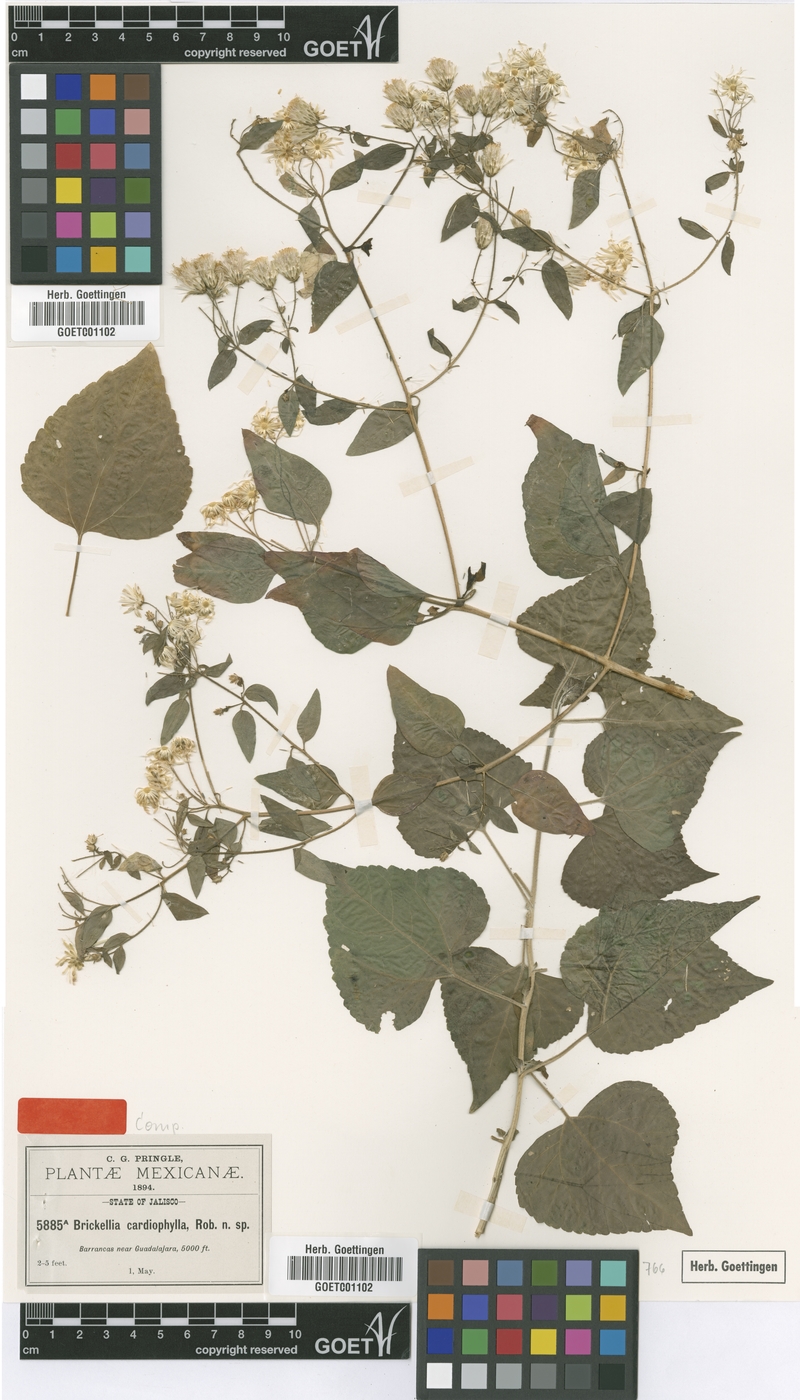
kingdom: Plantae
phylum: Tracheophyta
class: Magnoliopsida
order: Asterales
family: Asteraceae
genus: Brickellia
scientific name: Brickellia cardiophylla
